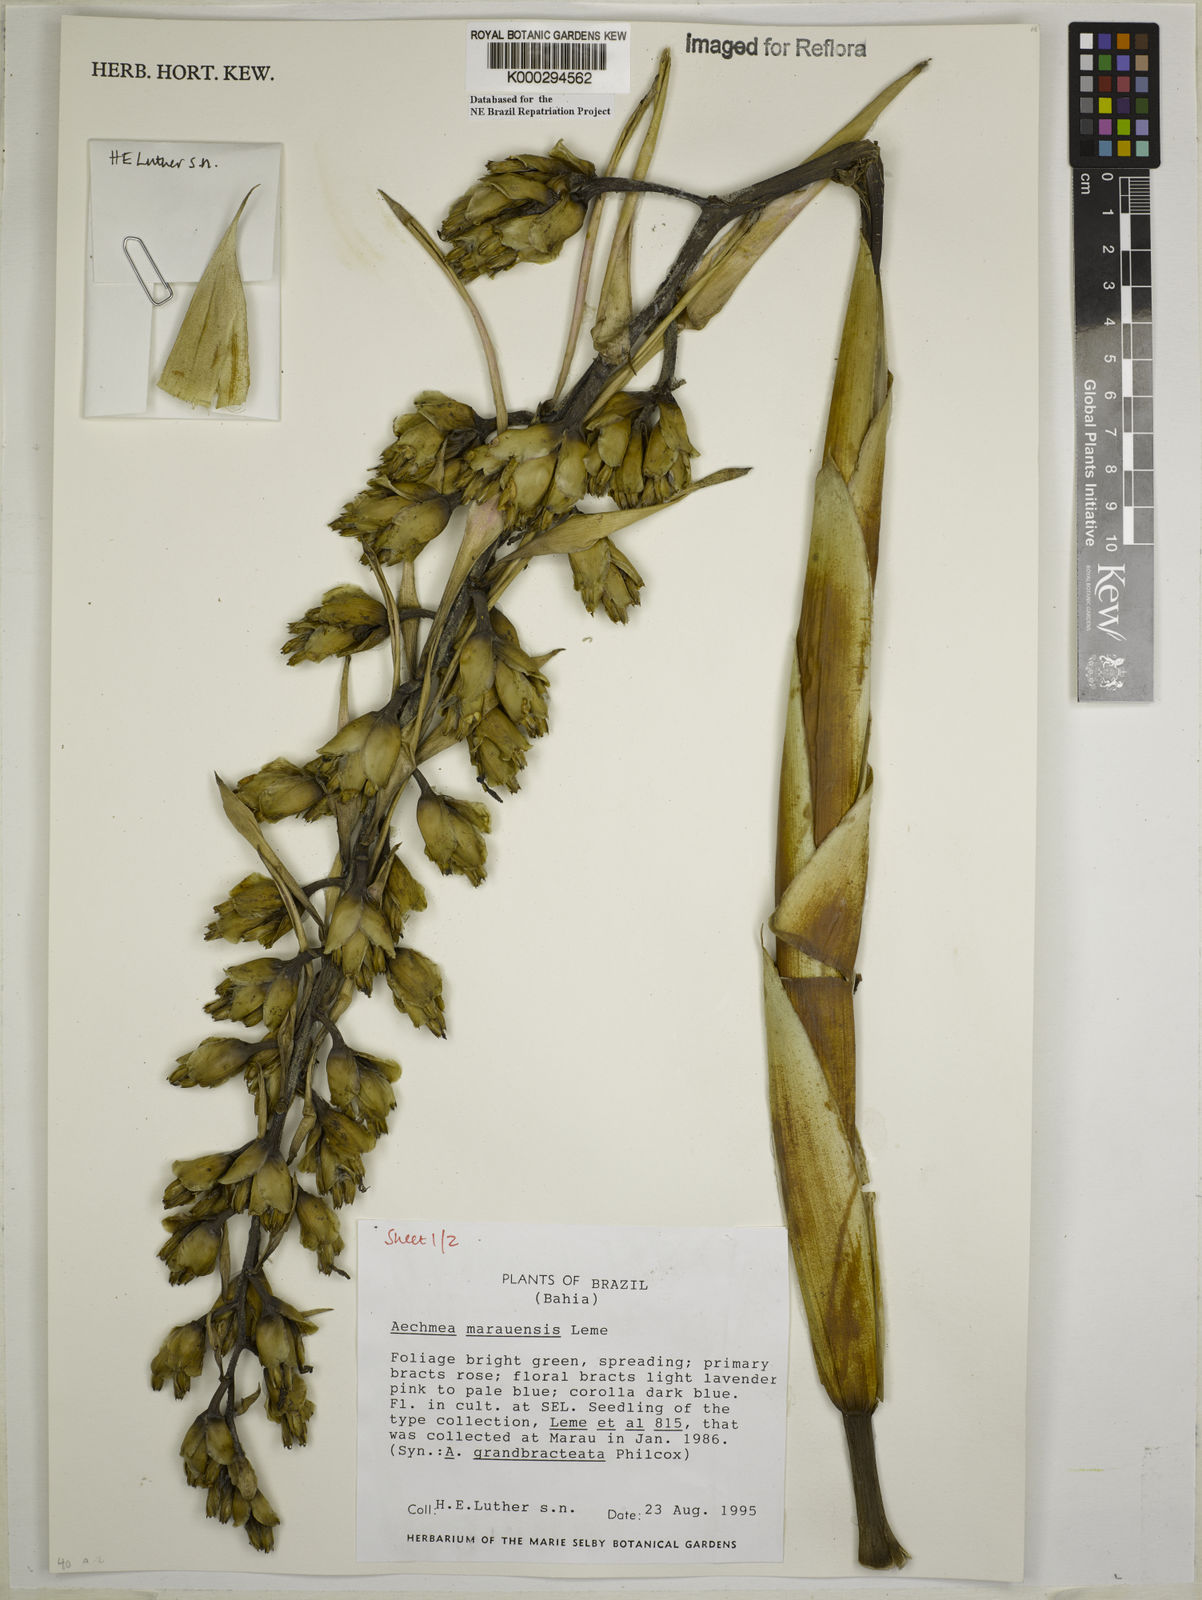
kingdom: Plantae
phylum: Tracheophyta
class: Liliopsida
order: Poales
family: Bromeliaceae
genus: Aechmea
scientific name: Aechmea marauensis
